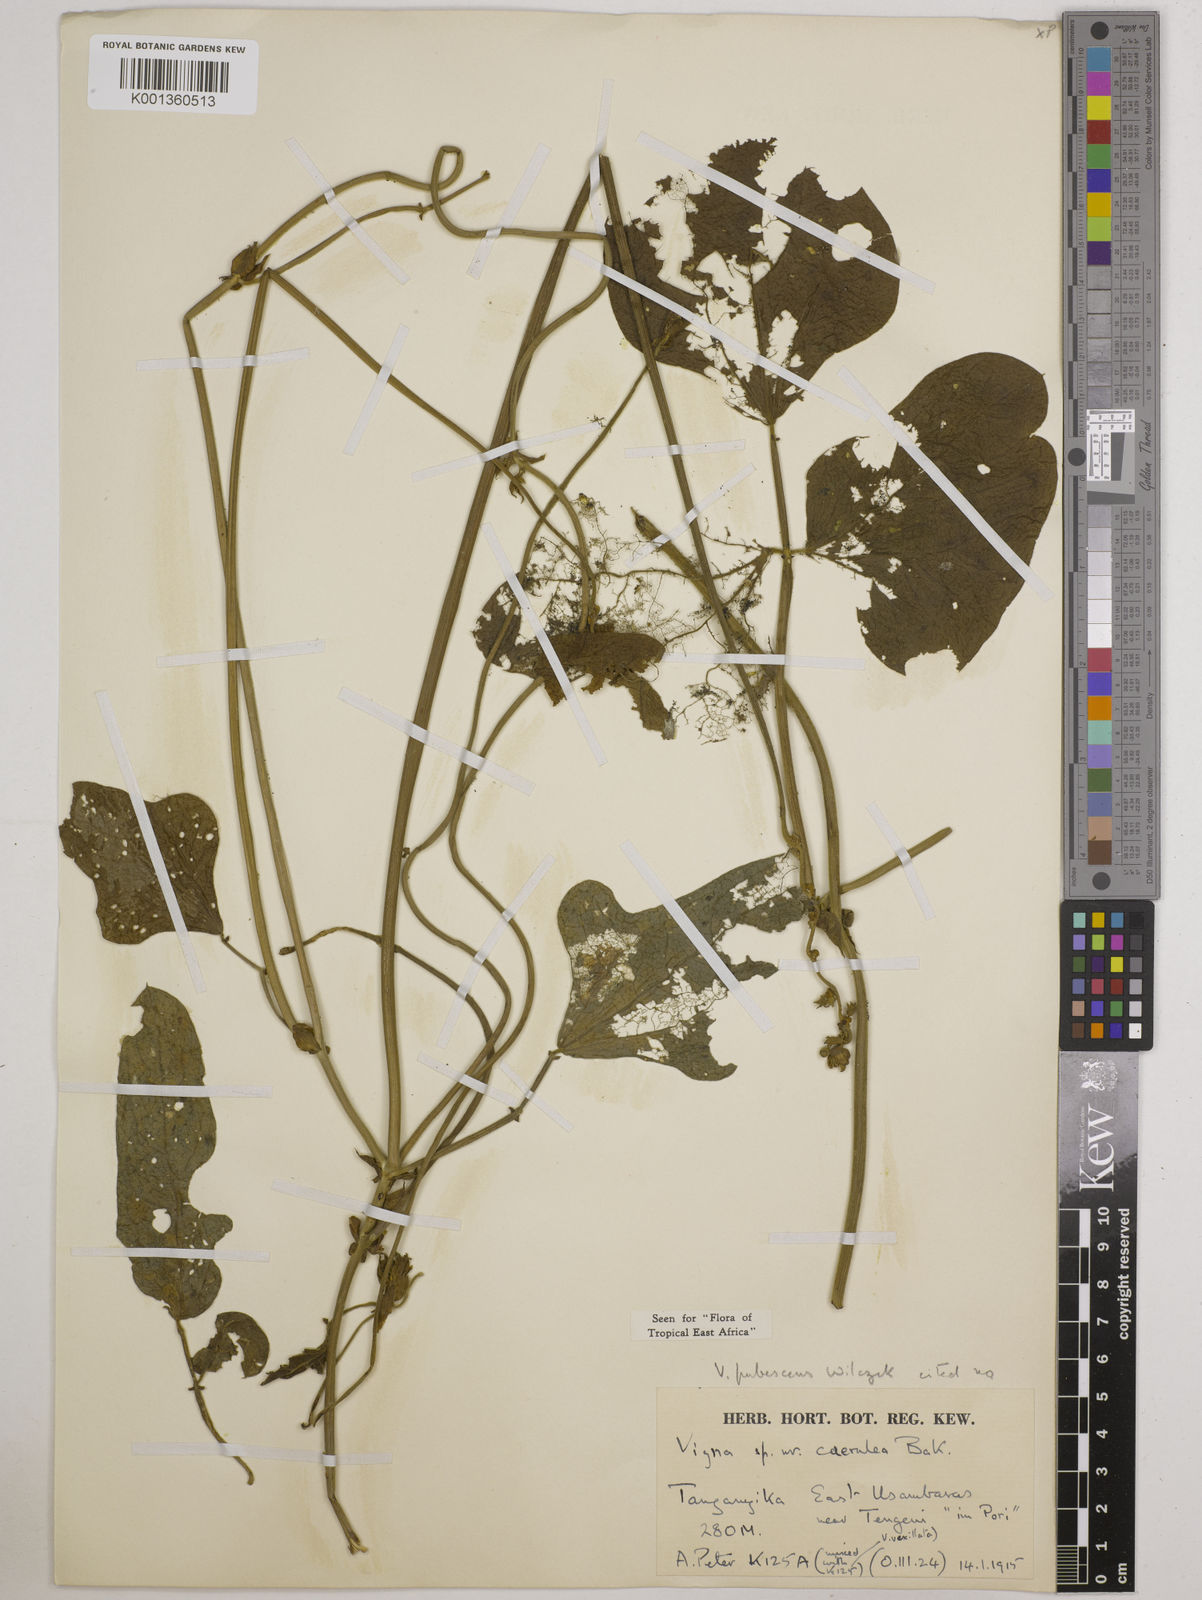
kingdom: Plantae
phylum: Tracheophyta
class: Magnoliopsida
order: Fabales
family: Fabaceae
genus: Vigna
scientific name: Vigna unguiculata
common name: Cowpea
